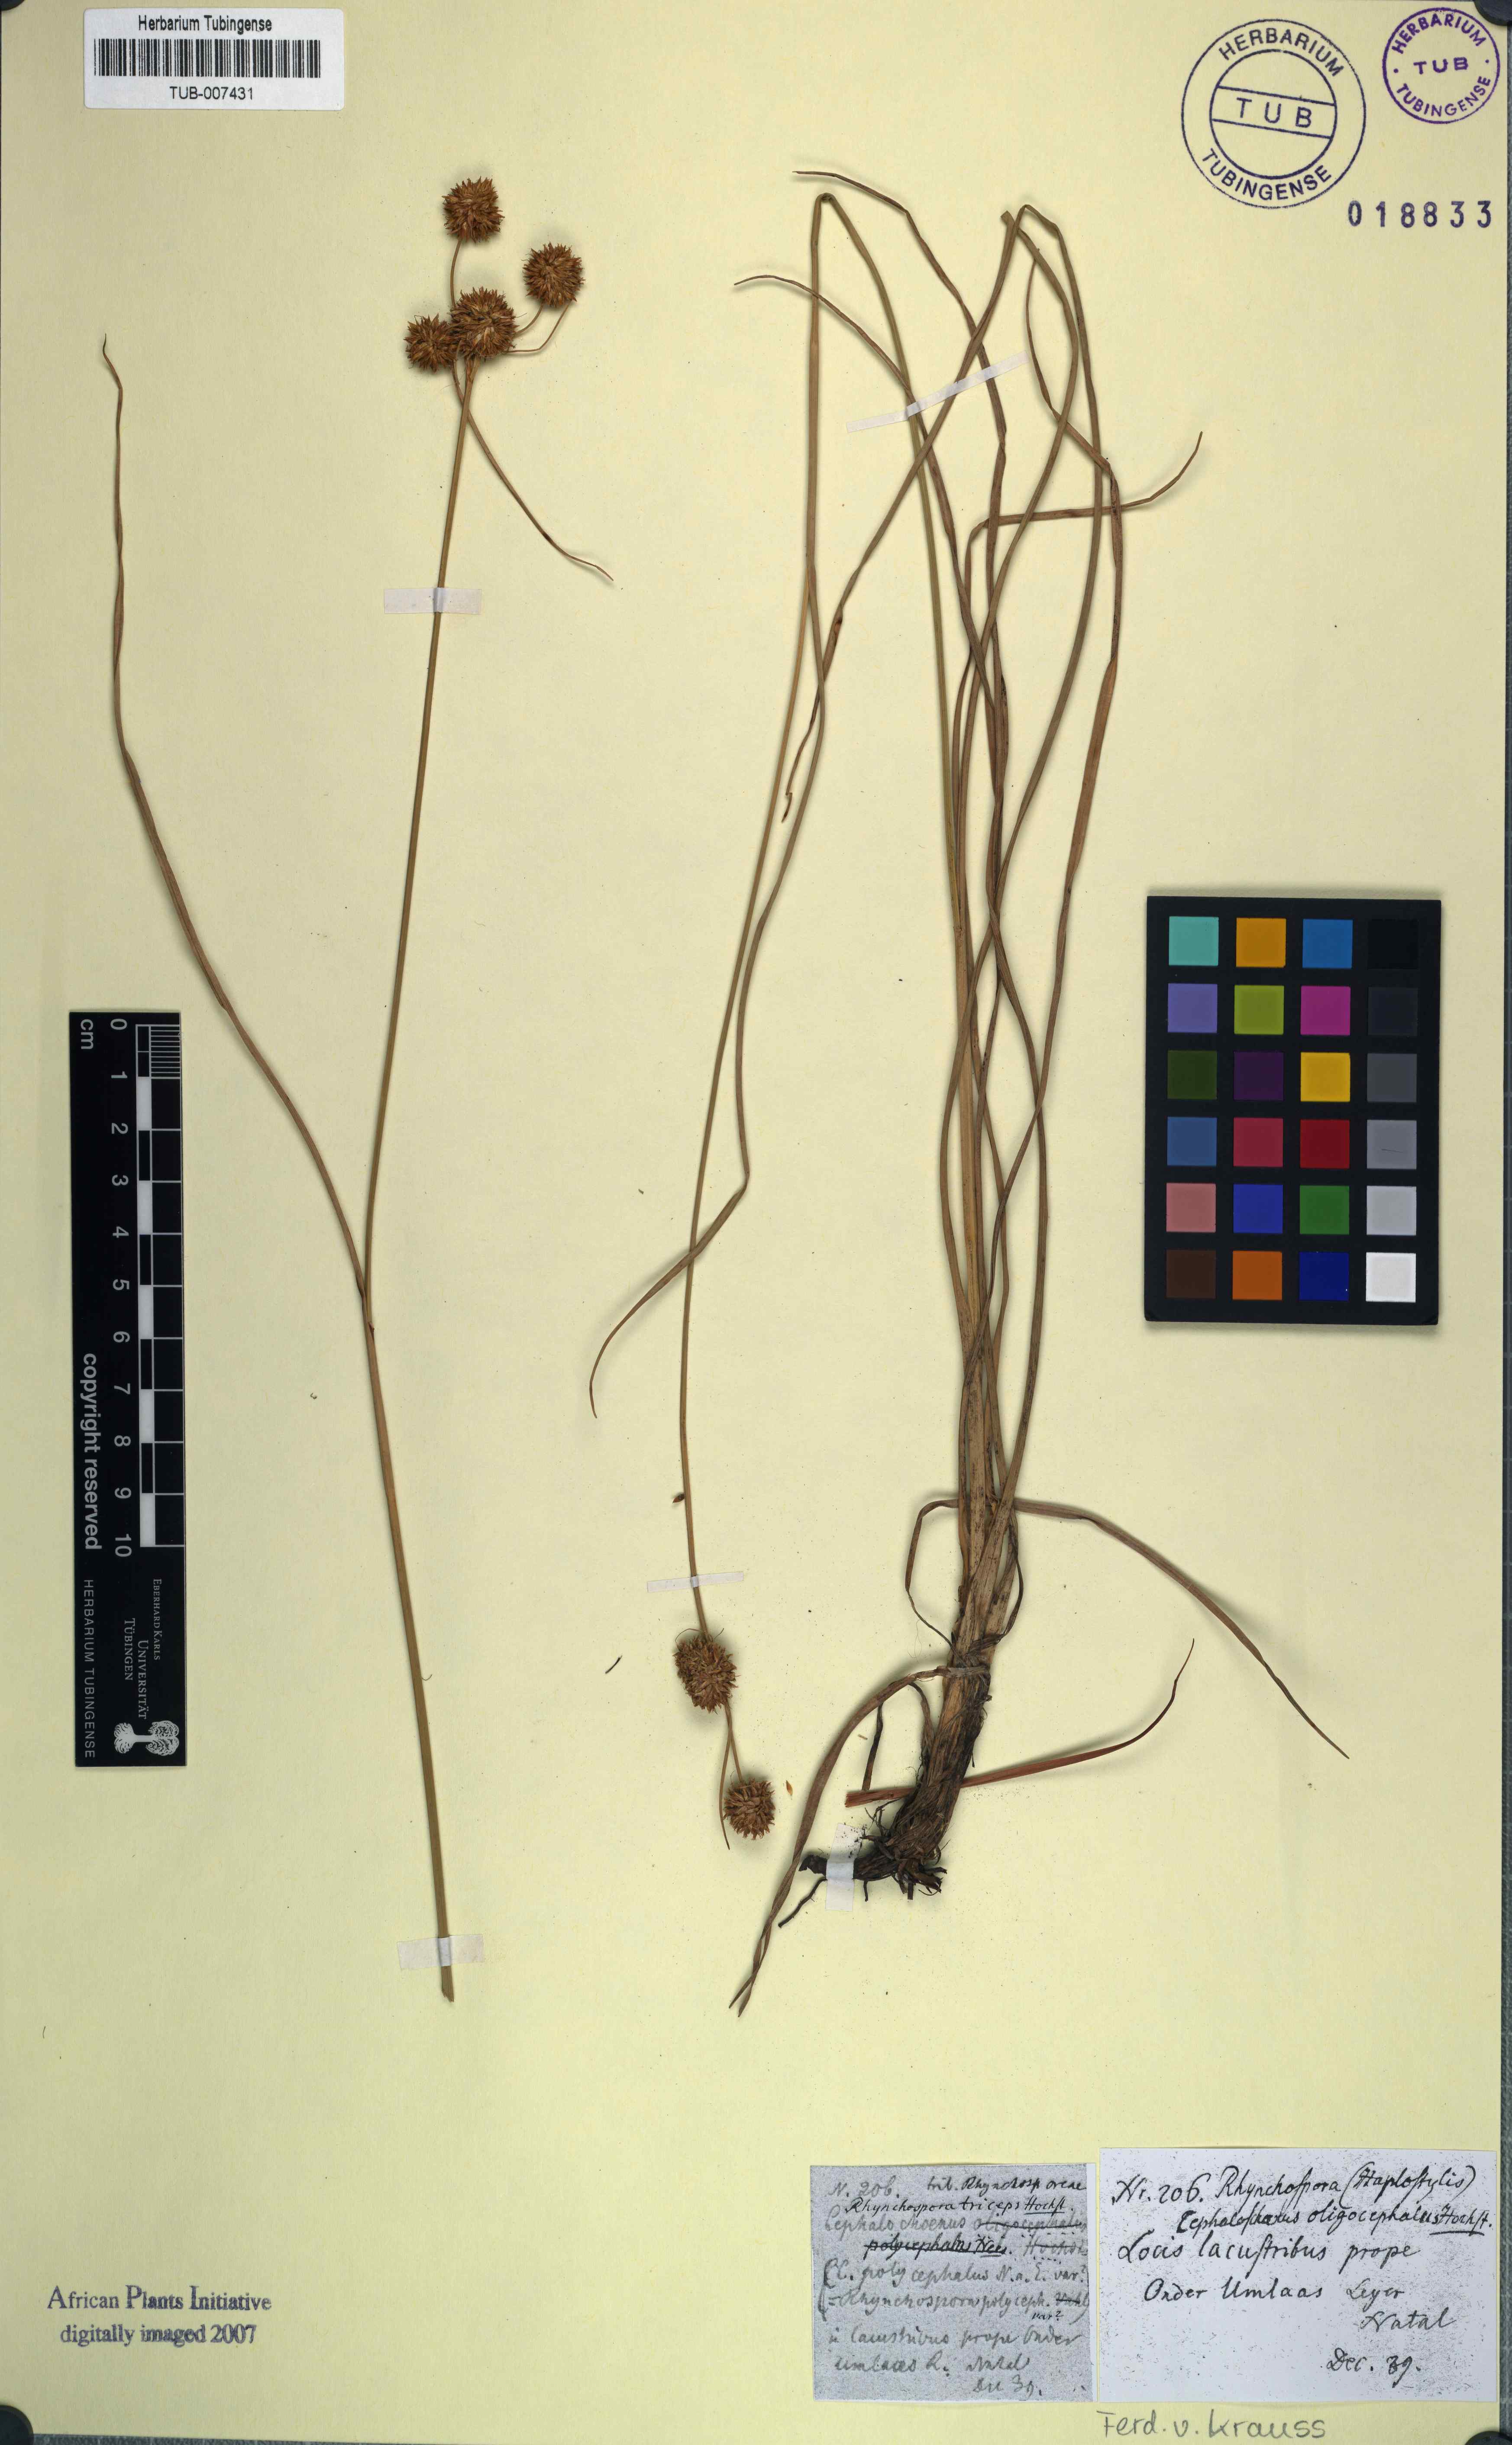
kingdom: Plantae
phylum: Tracheophyta
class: Liliopsida
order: Poales
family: Cyperaceae
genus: Rhynchospora
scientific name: Rhynchospora holoschoenoides
